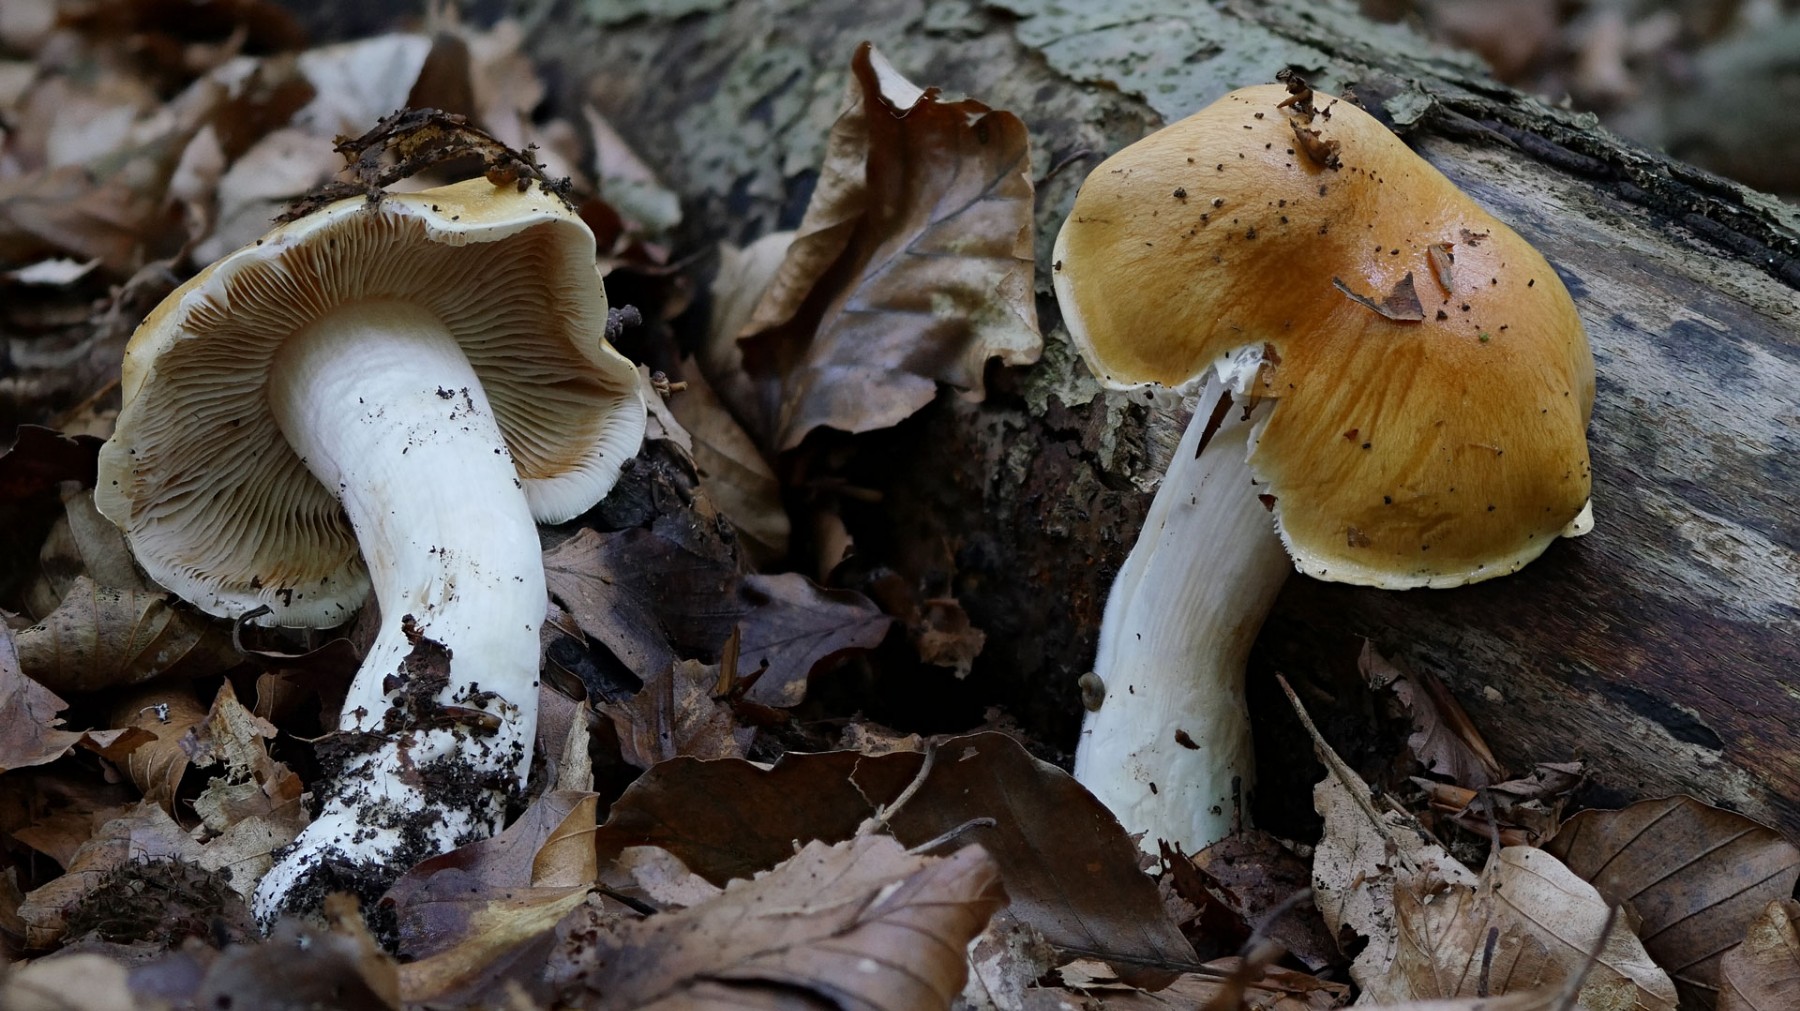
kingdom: Fungi
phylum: Basidiomycota
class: Agaricomycetes
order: Agaricales
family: Cortinariaceae
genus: Thaxterogaster
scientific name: Thaxterogaster emollitus
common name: besk slørhat
